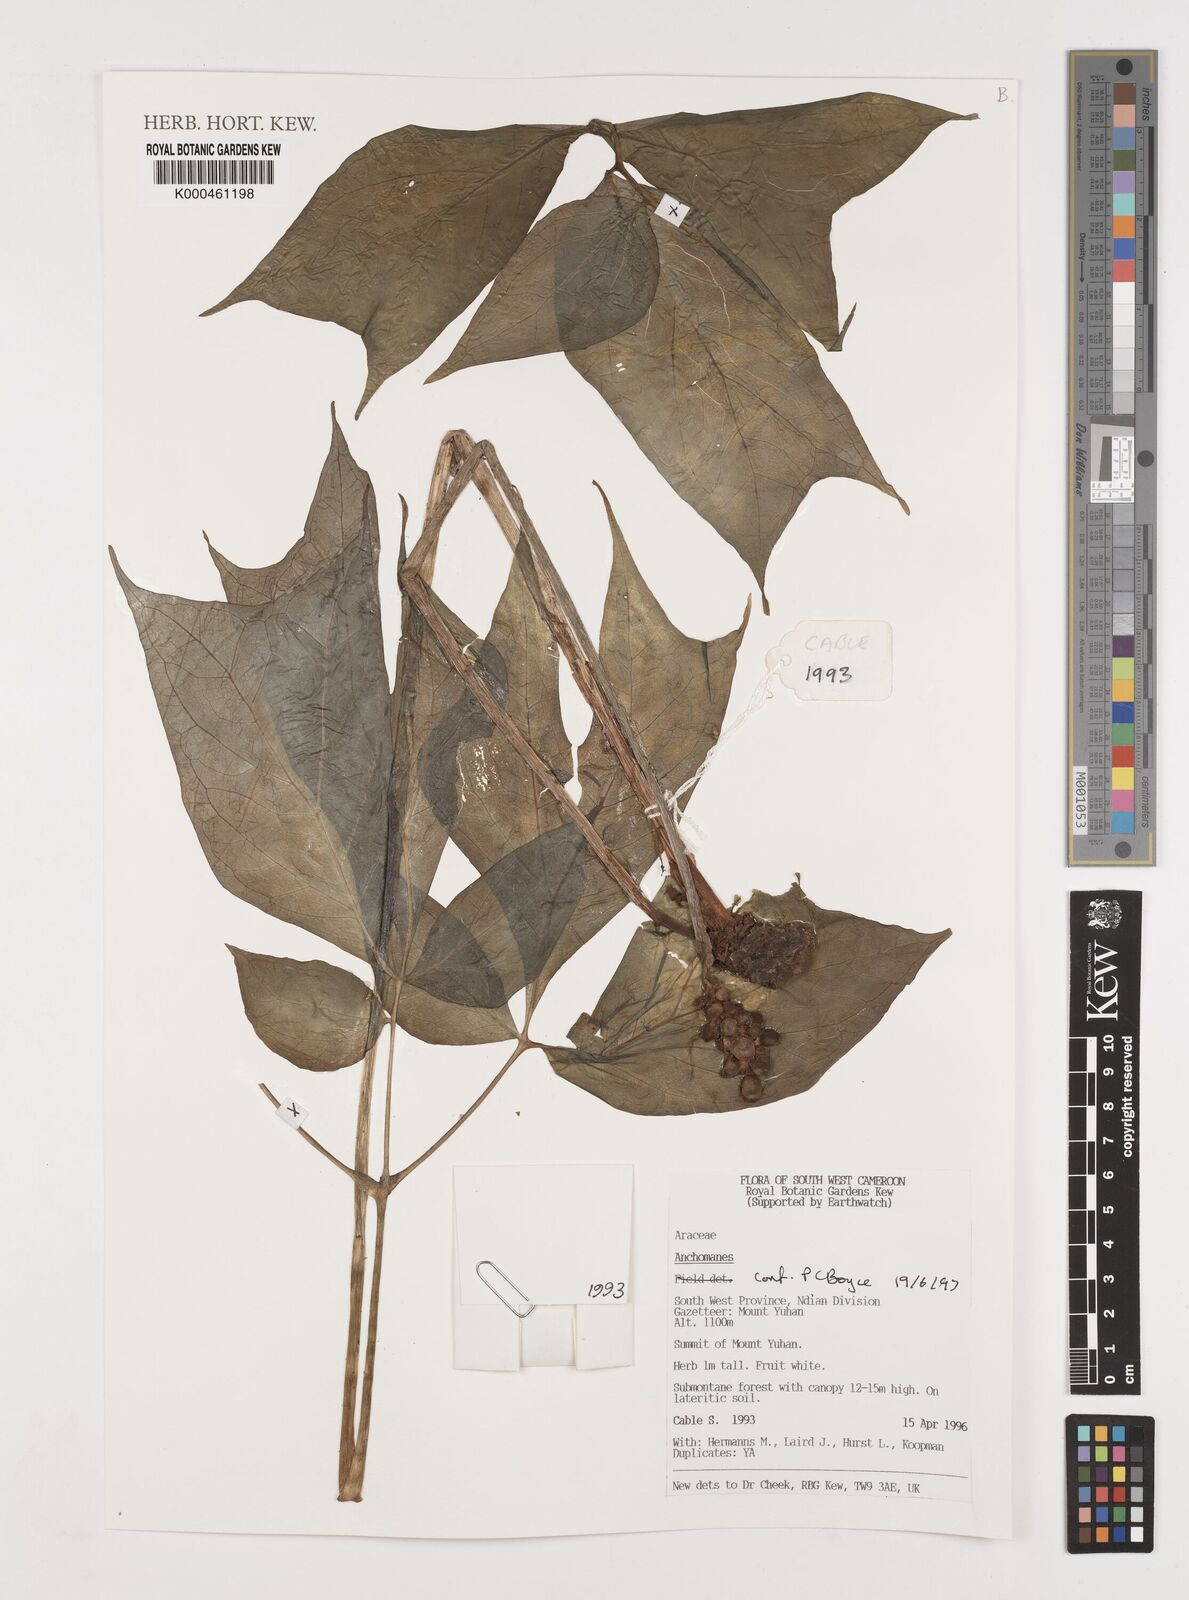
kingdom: Plantae
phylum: Tracheophyta
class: Liliopsida
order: Alismatales
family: Araceae
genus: Anchomanes
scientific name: Anchomanes
